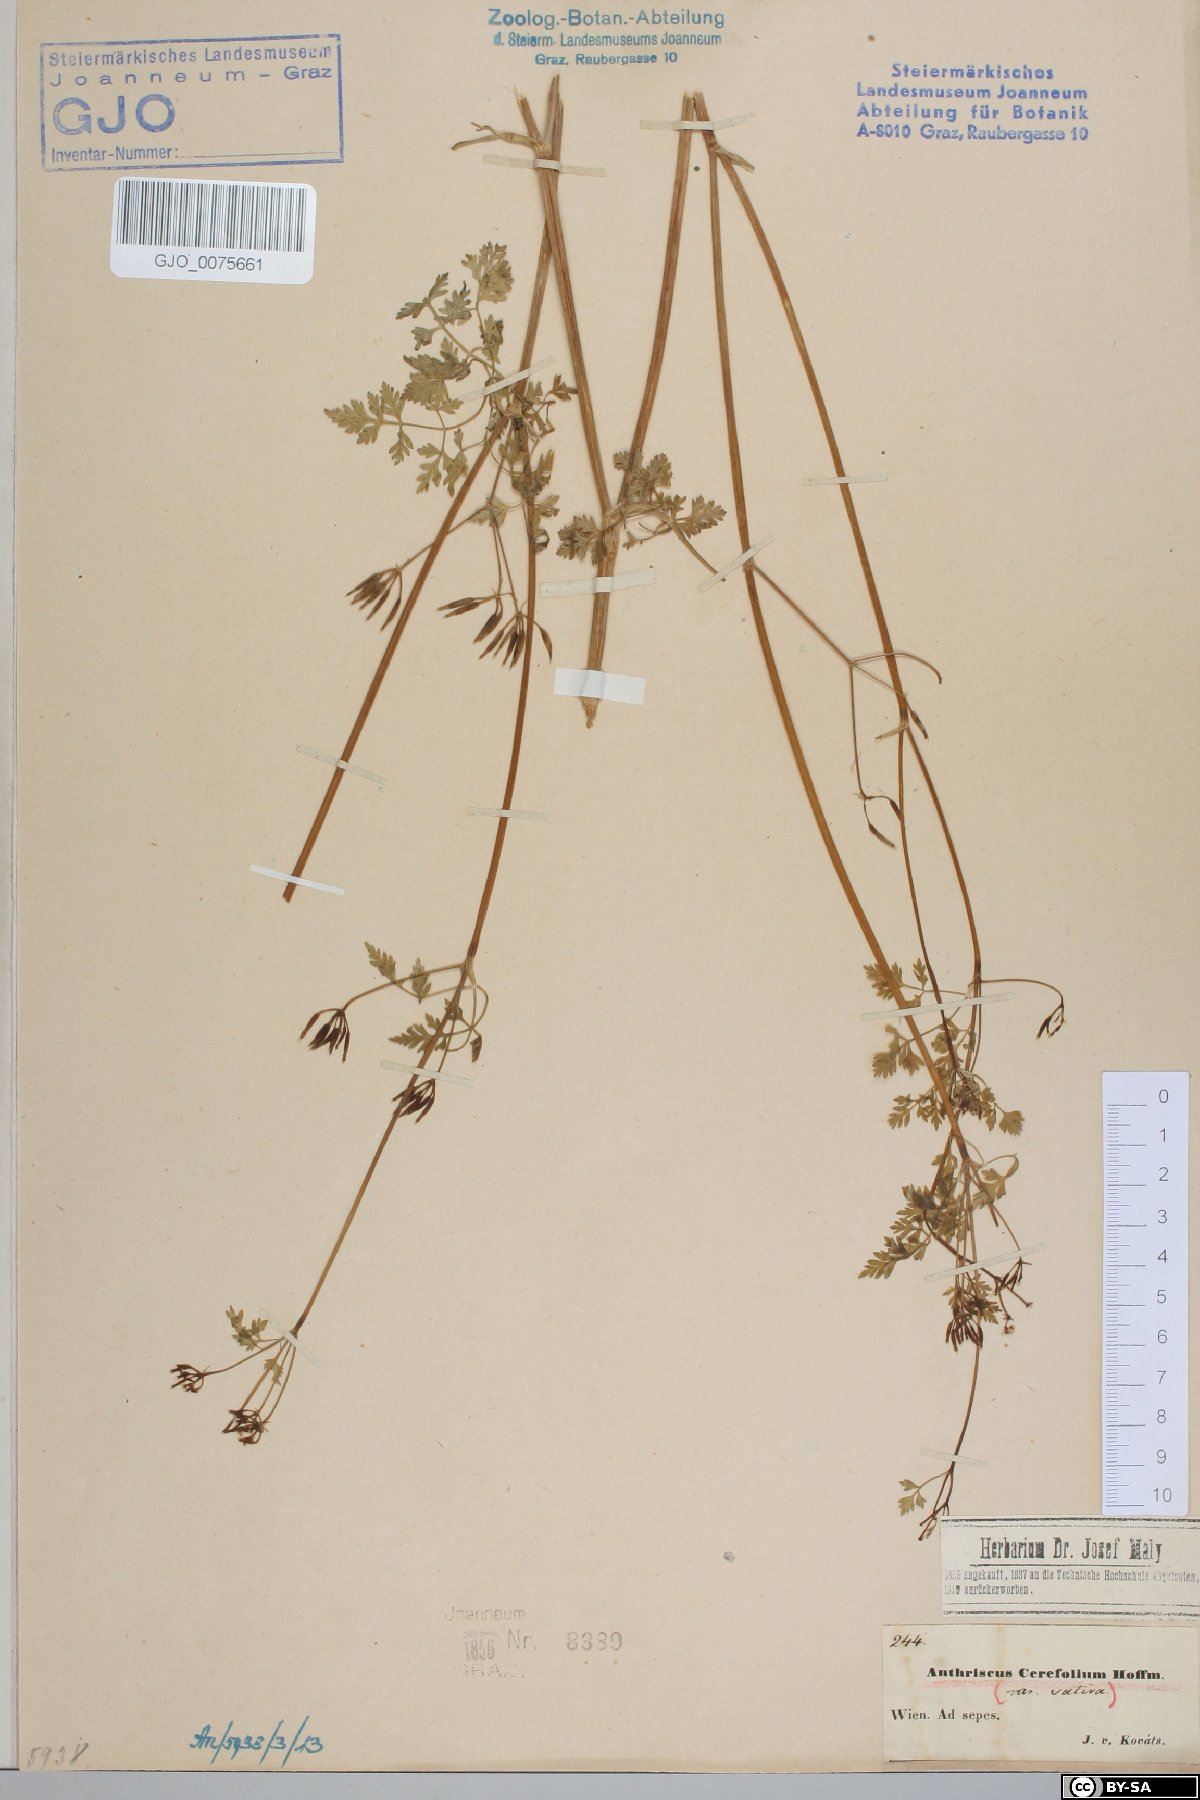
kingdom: Plantae
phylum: Tracheophyta
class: Magnoliopsida
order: Apiales
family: Apiaceae
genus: Anthriscus
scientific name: Anthriscus cerefolium
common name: Garden chervil
